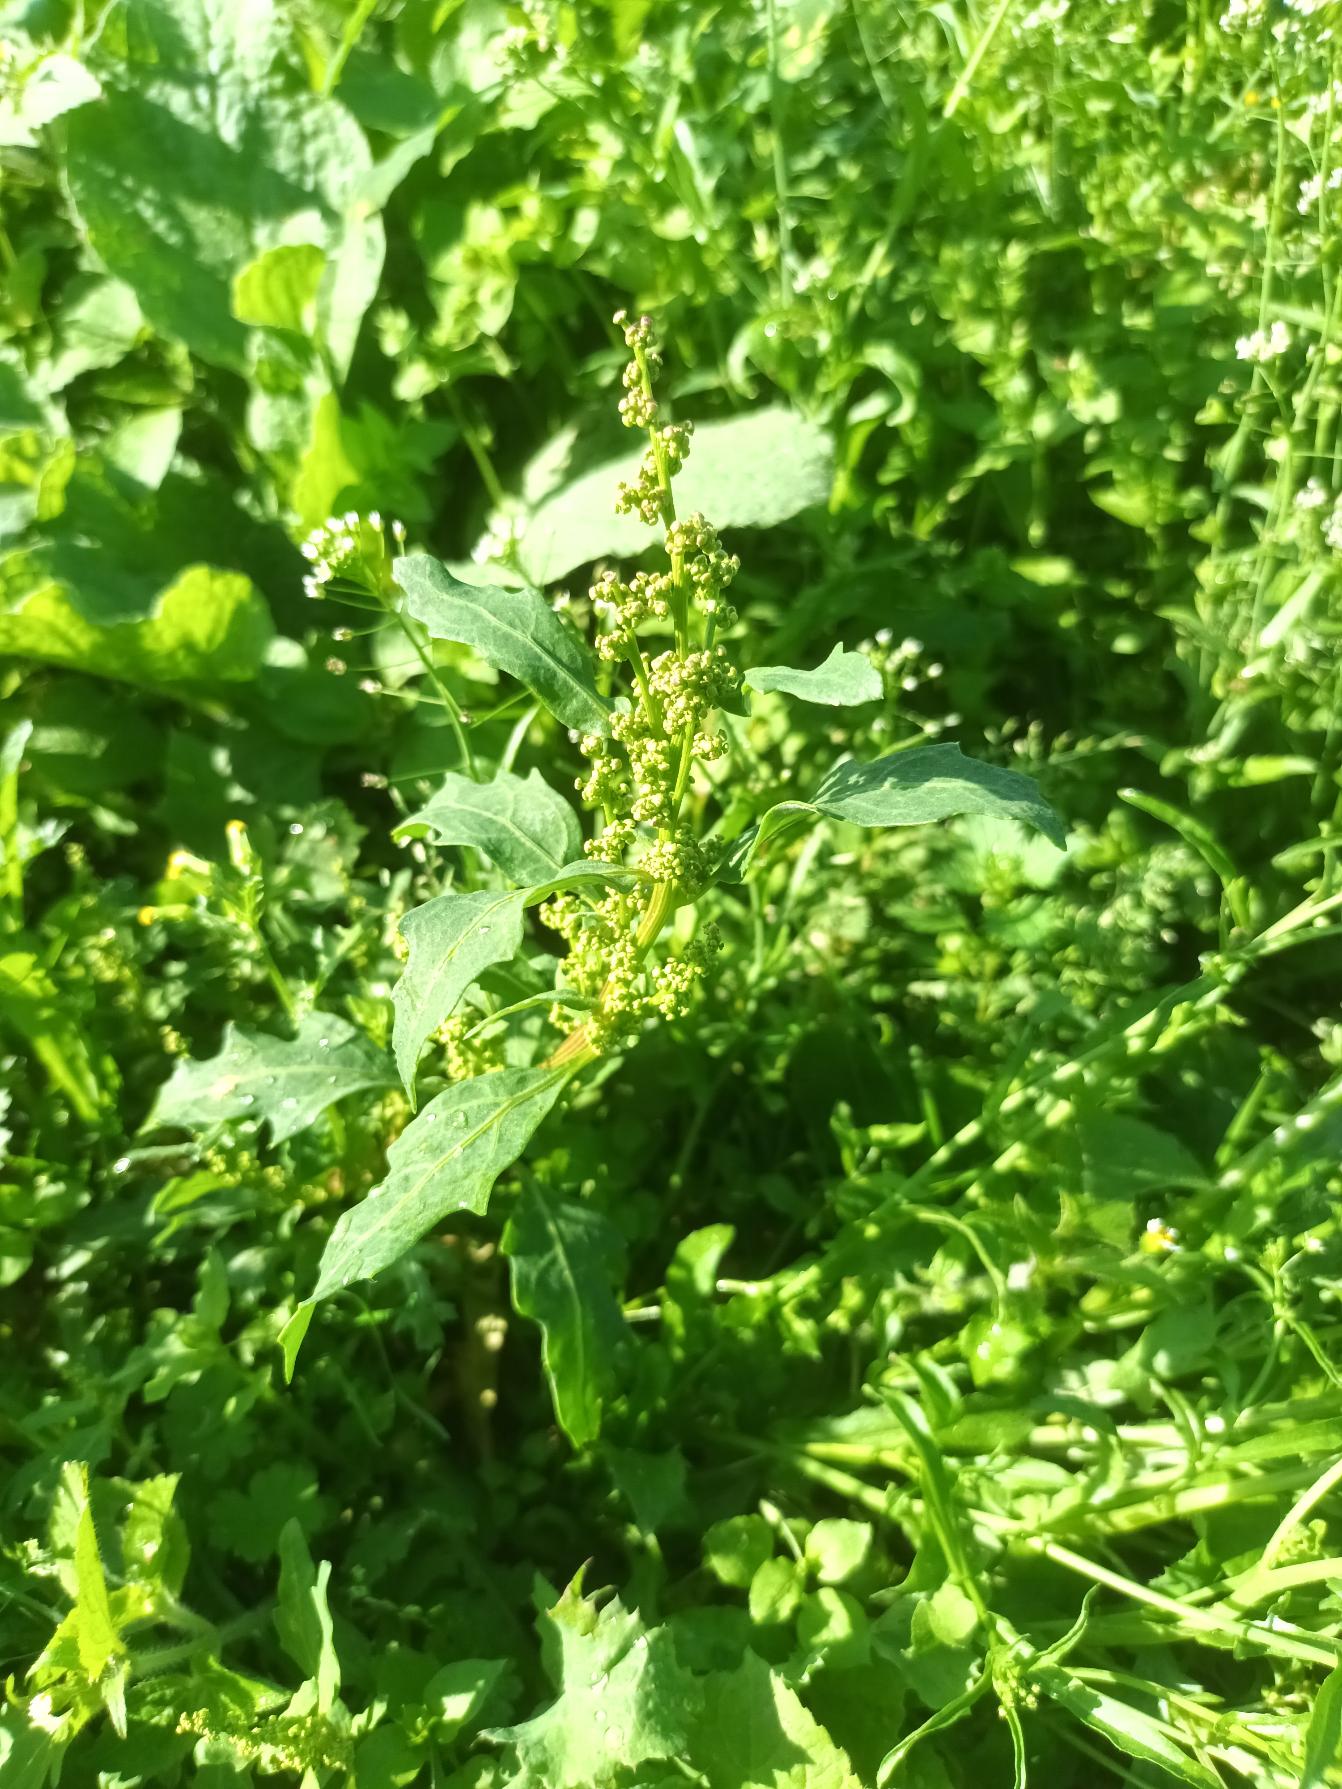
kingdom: Plantae
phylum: Tracheophyta
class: Magnoliopsida
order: Caryophyllales
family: Amaranthaceae
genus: Oxybasis
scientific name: Oxybasis glauca
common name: Blågrøn gåsefod
